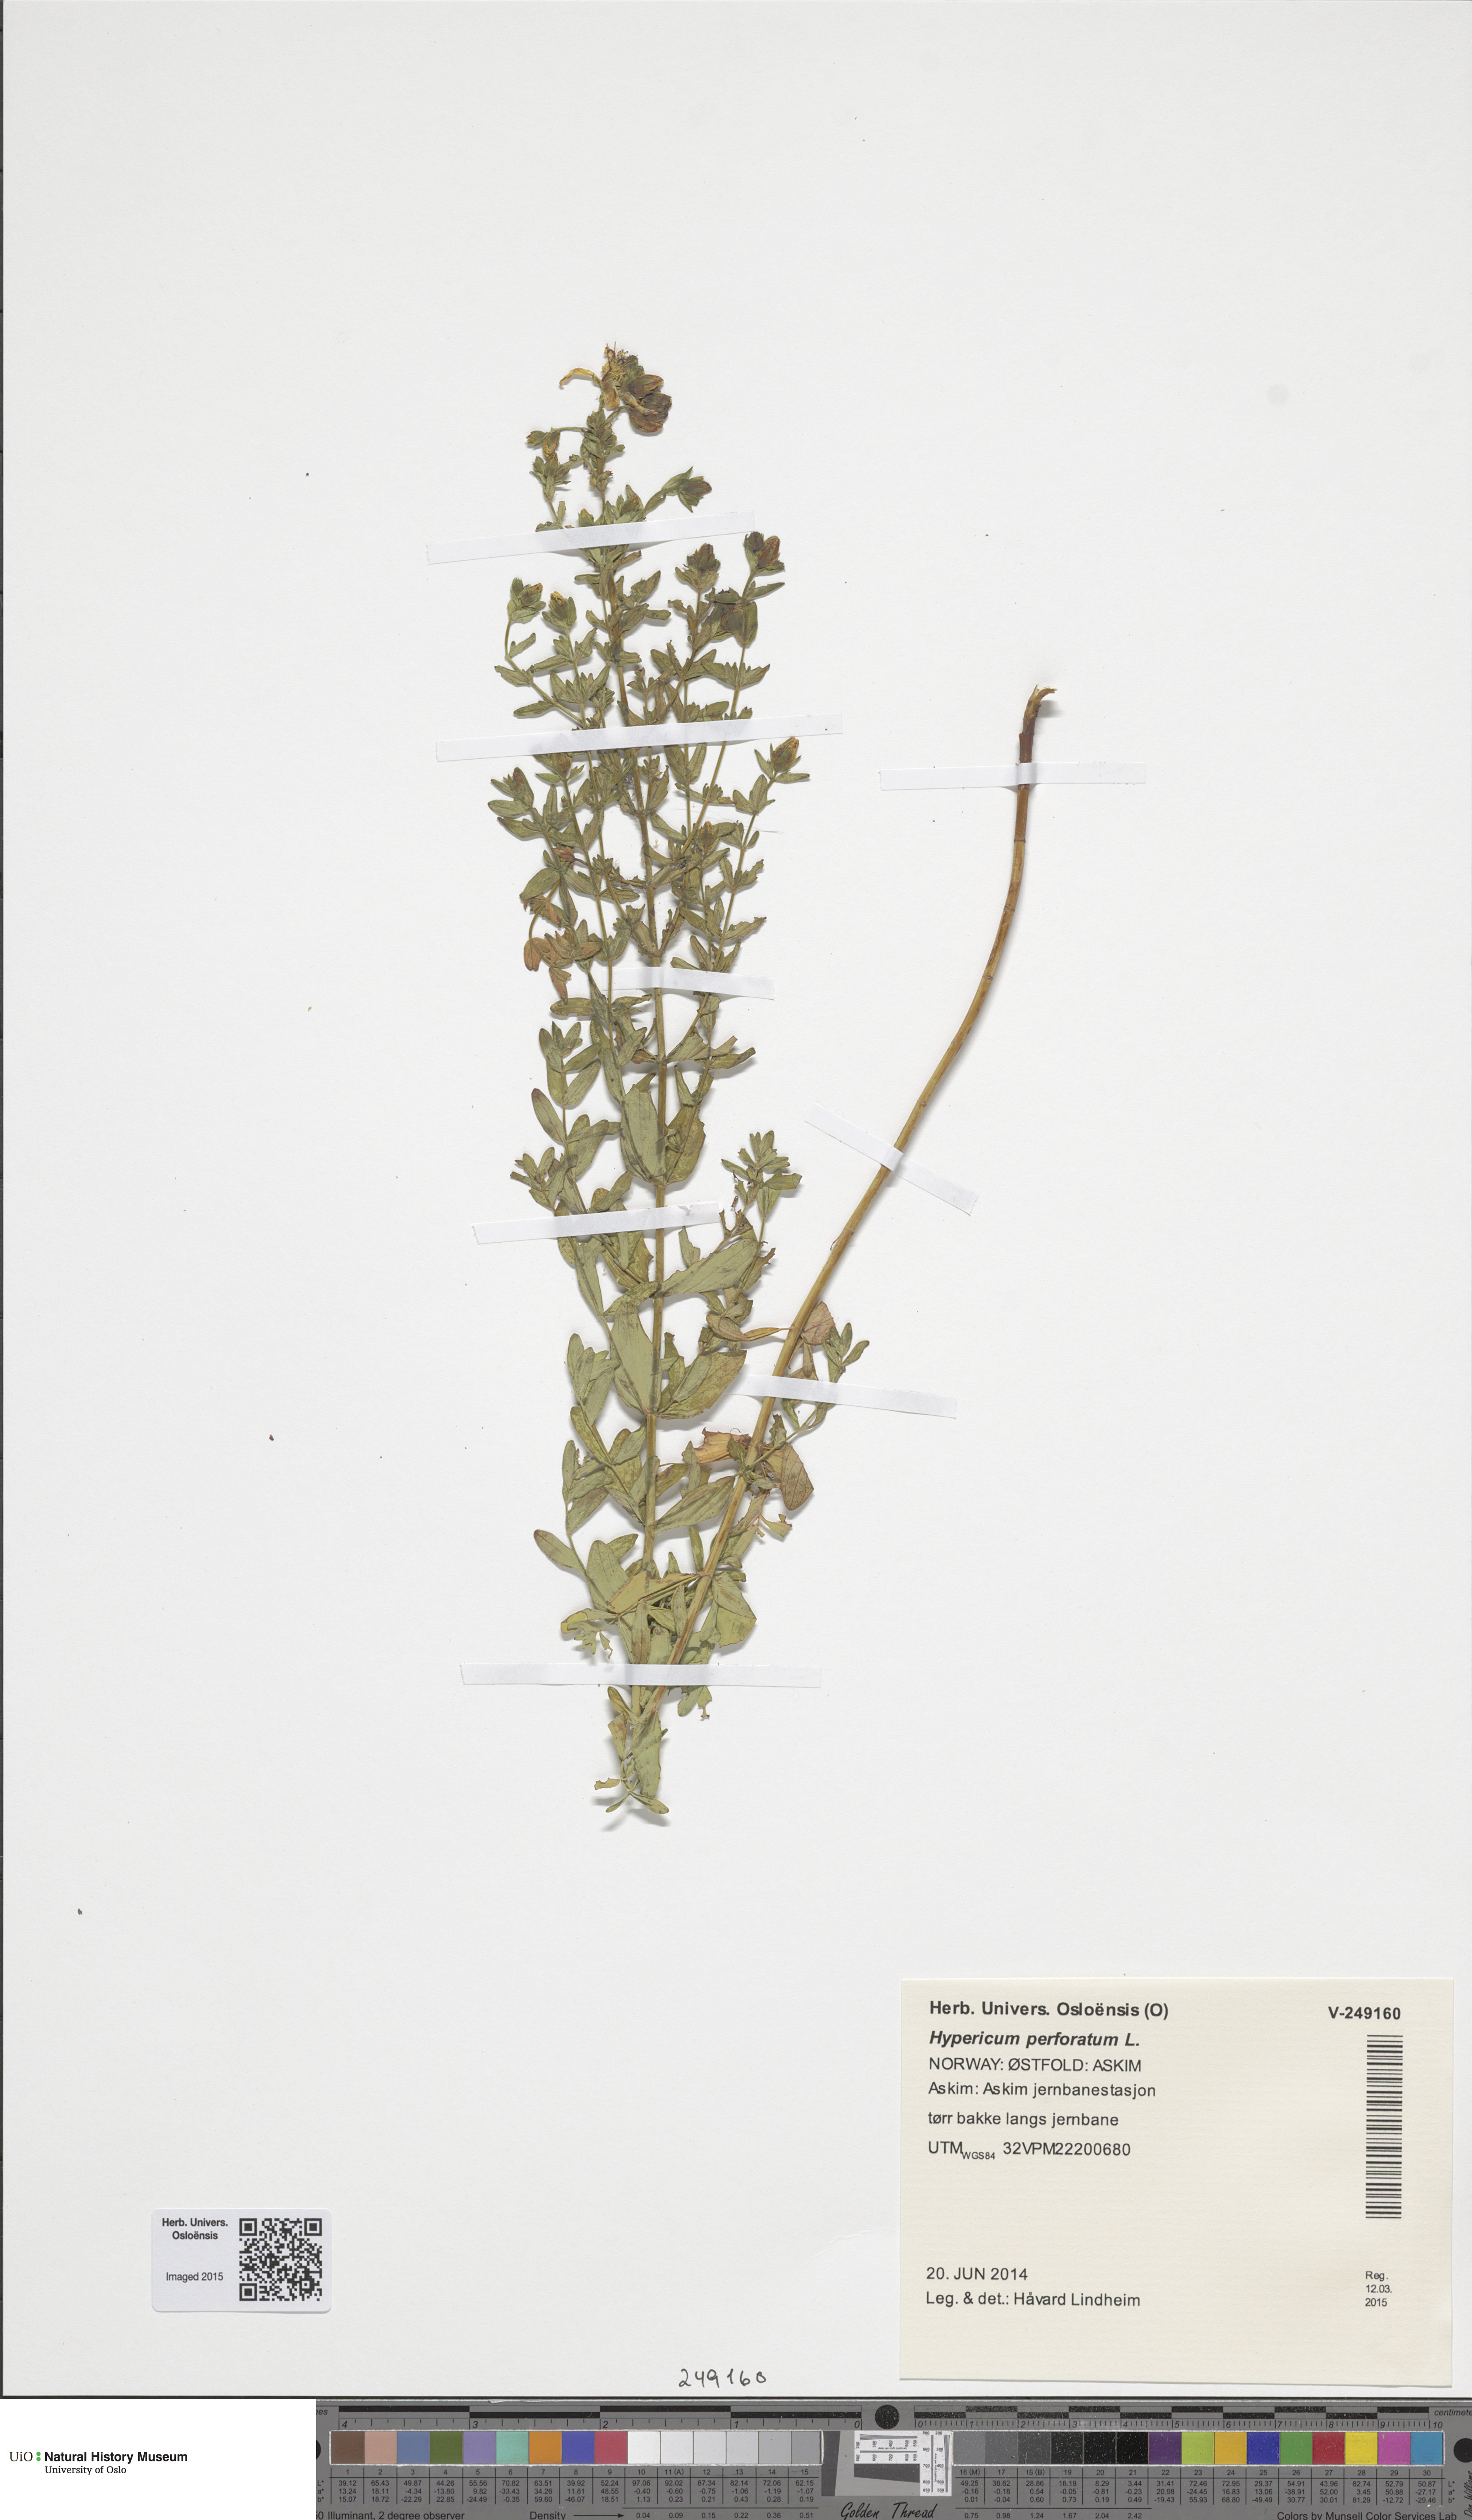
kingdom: Plantae
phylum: Tracheophyta
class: Magnoliopsida
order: Malpighiales
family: Hypericaceae
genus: Hypericum
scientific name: Hypericum perforatum
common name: Common st. johnswort
